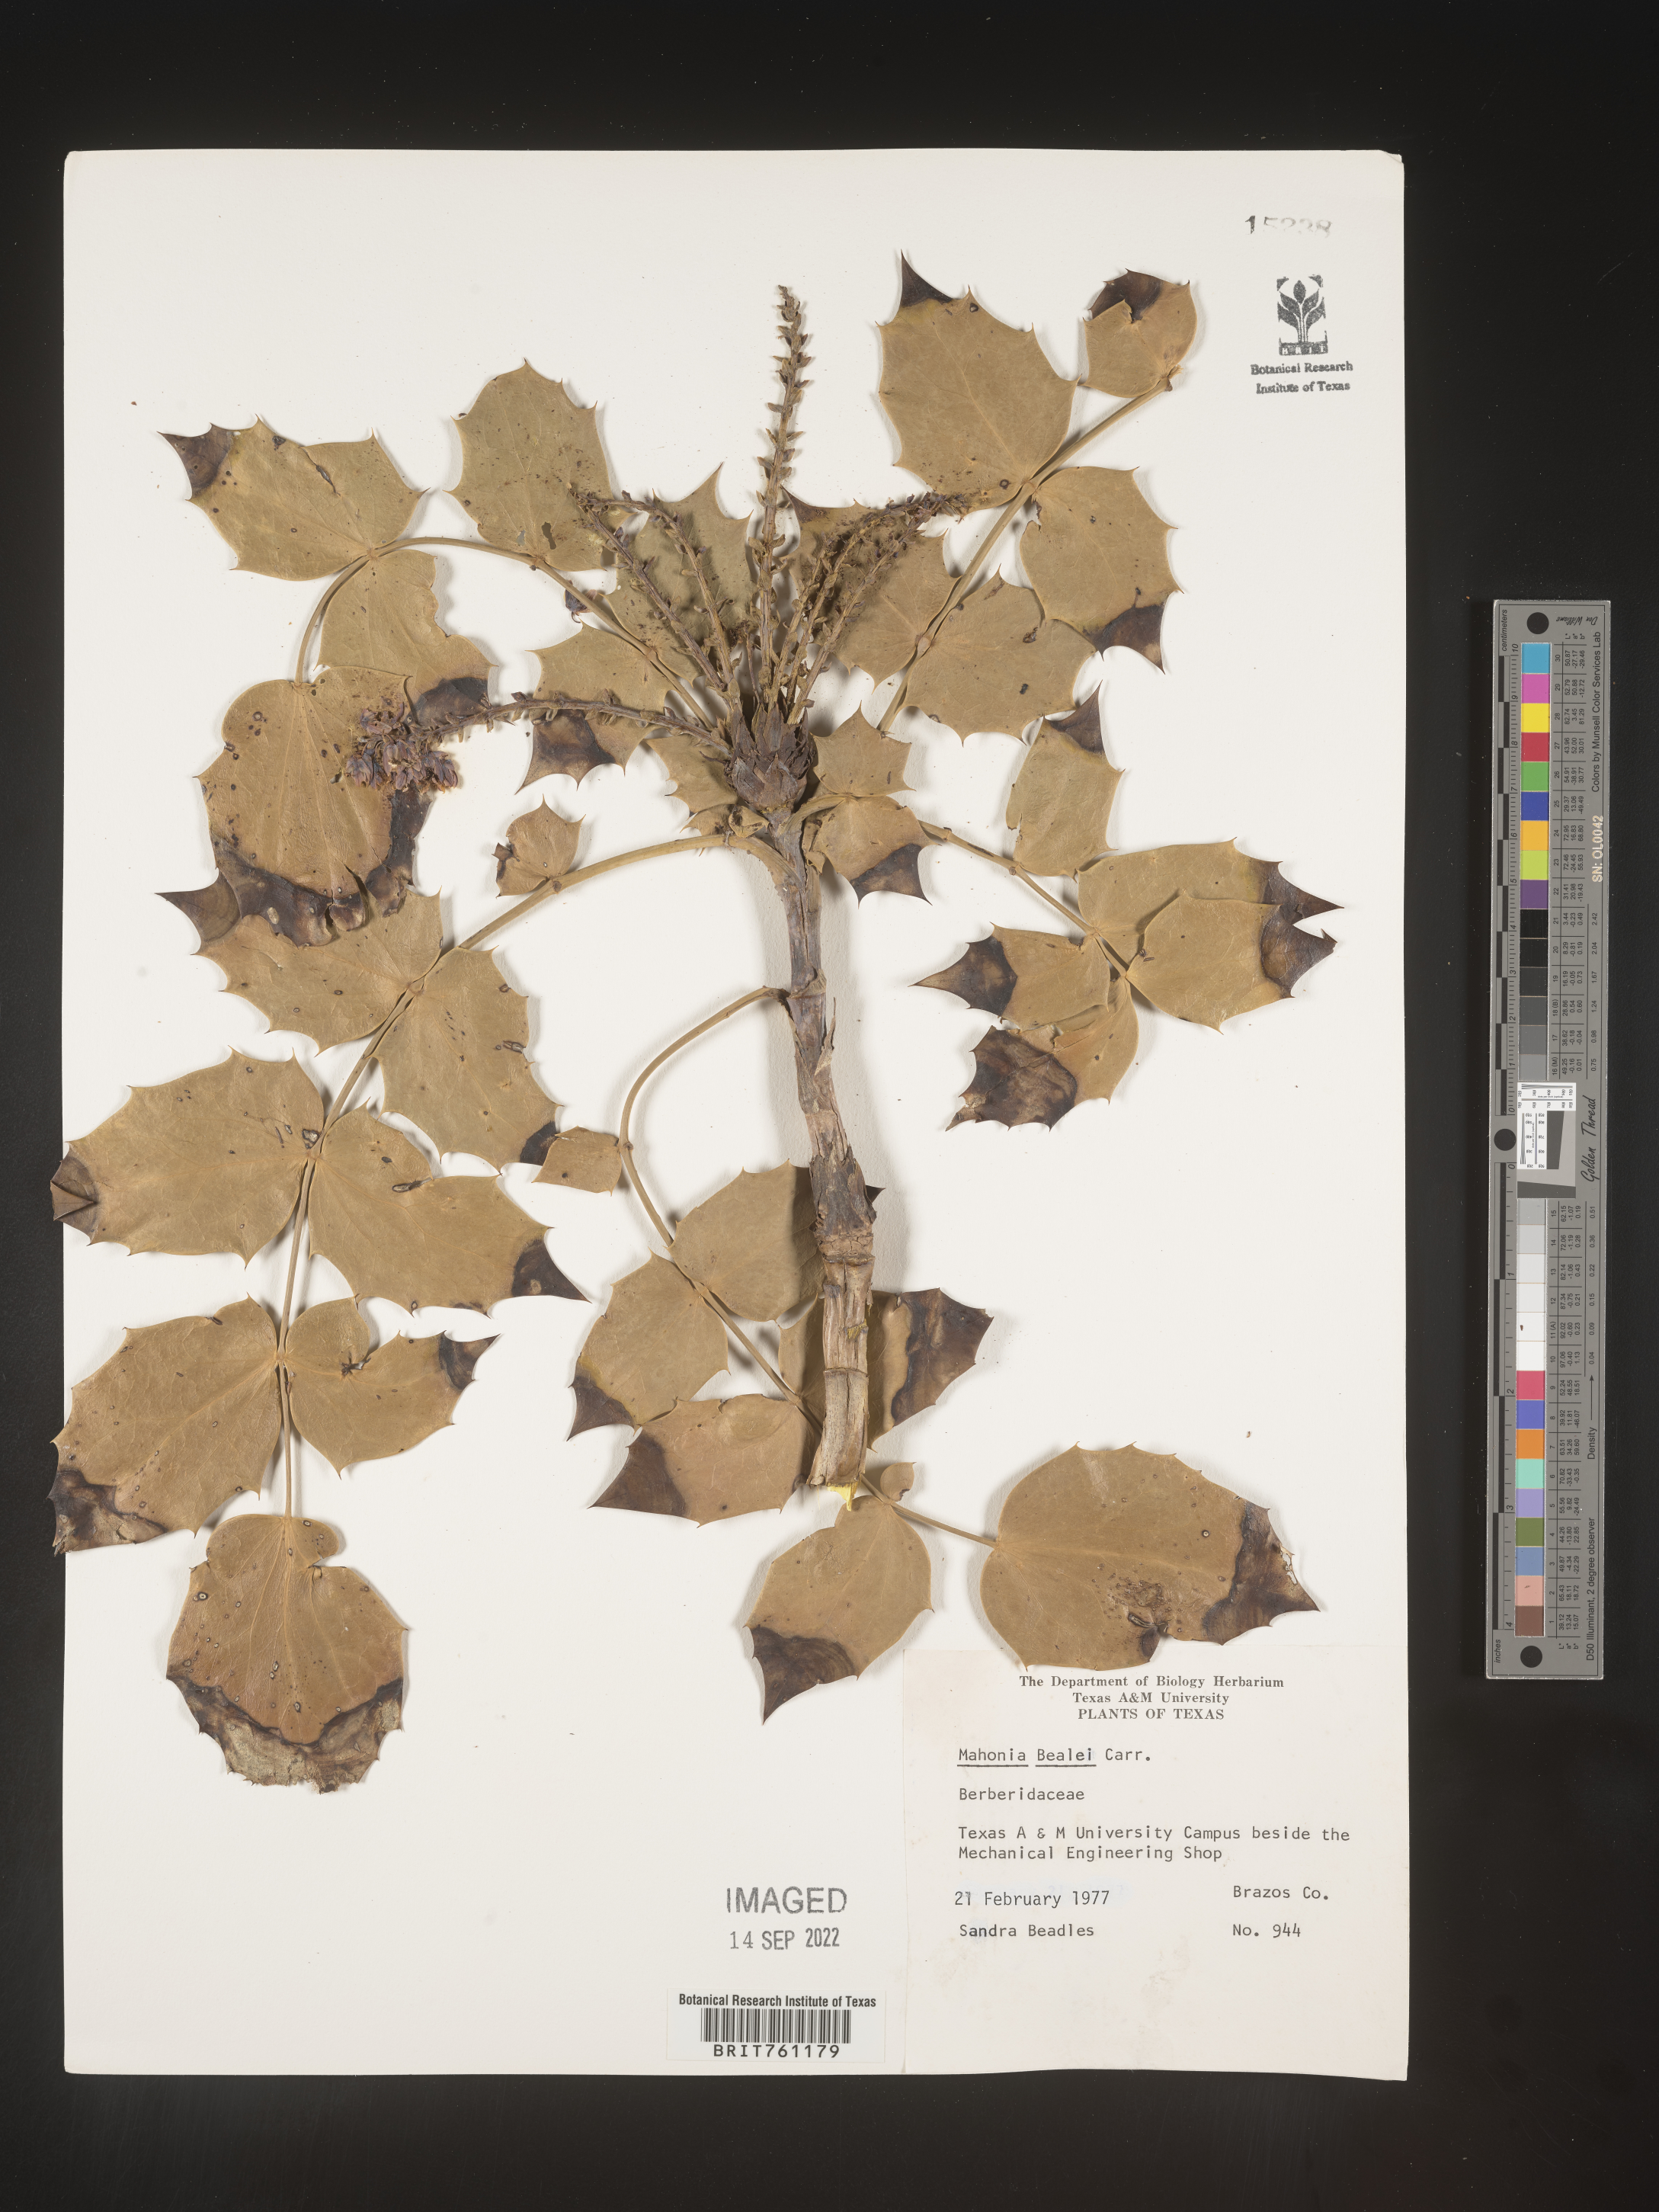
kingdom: Plantae
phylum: Tracheophyta
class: Magnoliopsida
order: Ranunculales
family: Berberidaceae
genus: Mahonia
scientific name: Mahonia
